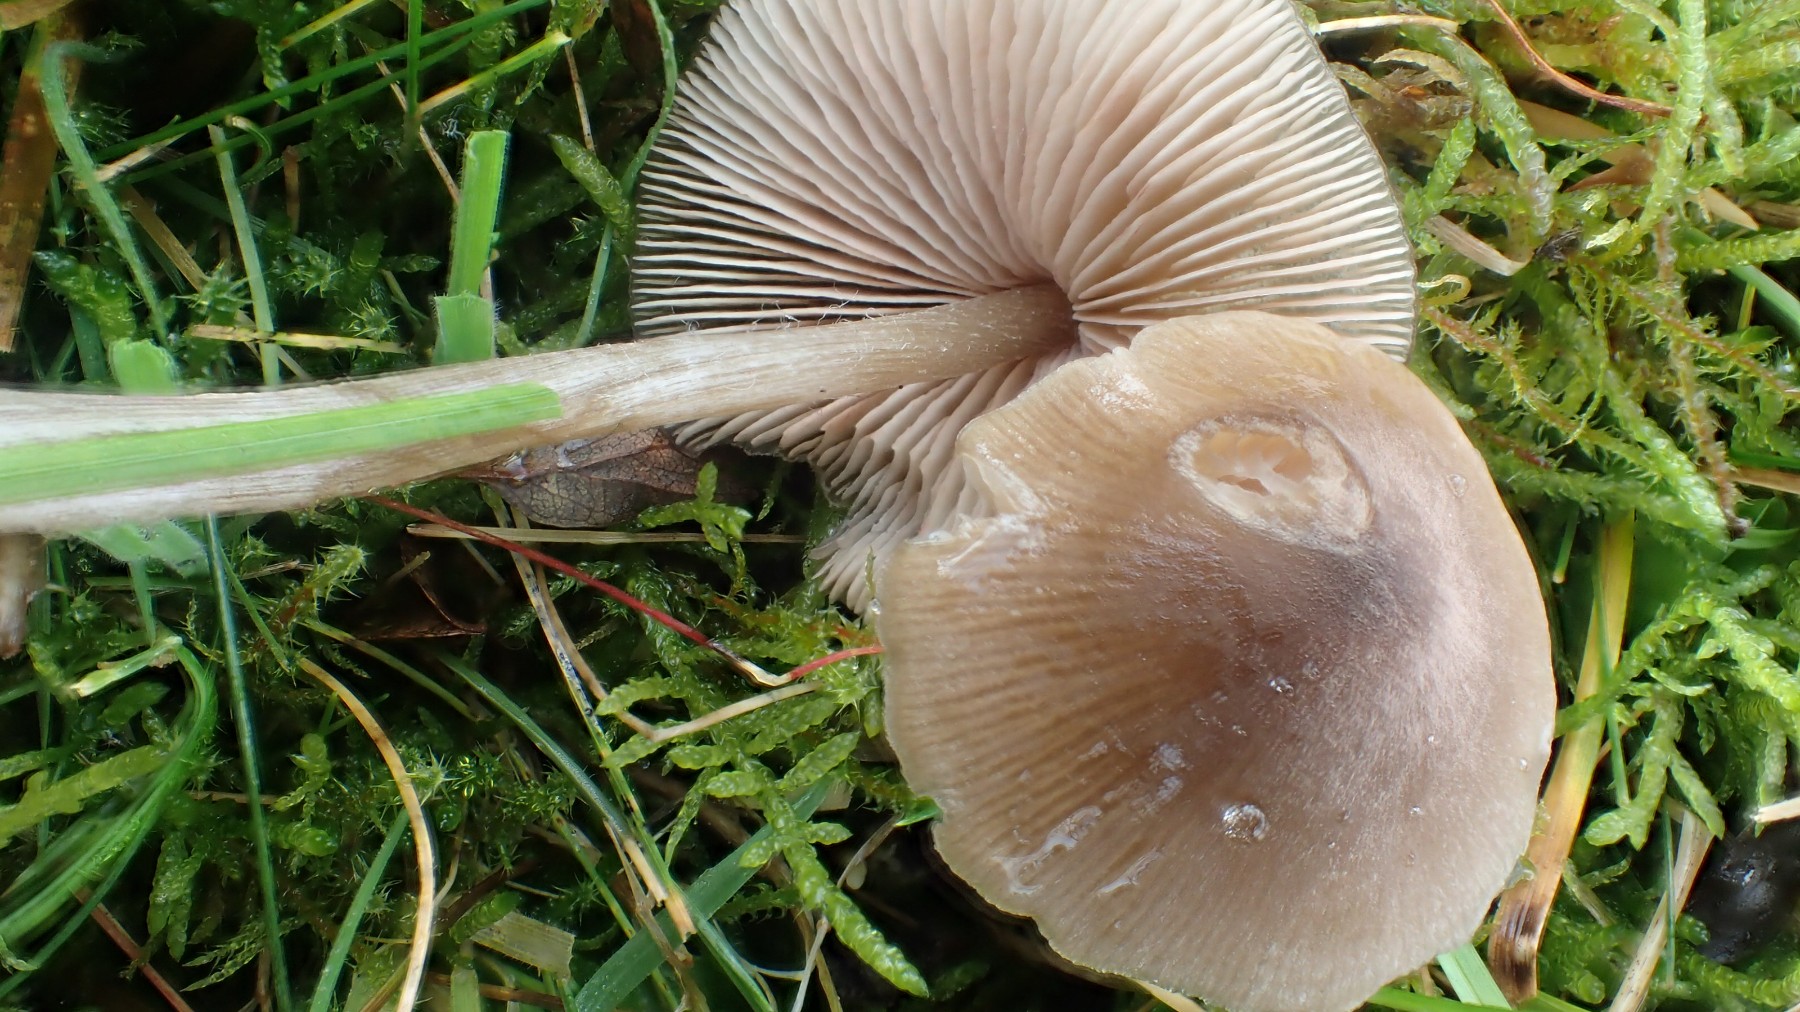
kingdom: Fungi
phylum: Basidiomycota
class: Agaricomycetes
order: Agaricales
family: Entolomataceae
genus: Entoloma
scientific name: Entoloma conferendum
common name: stjernesporet rødblad
